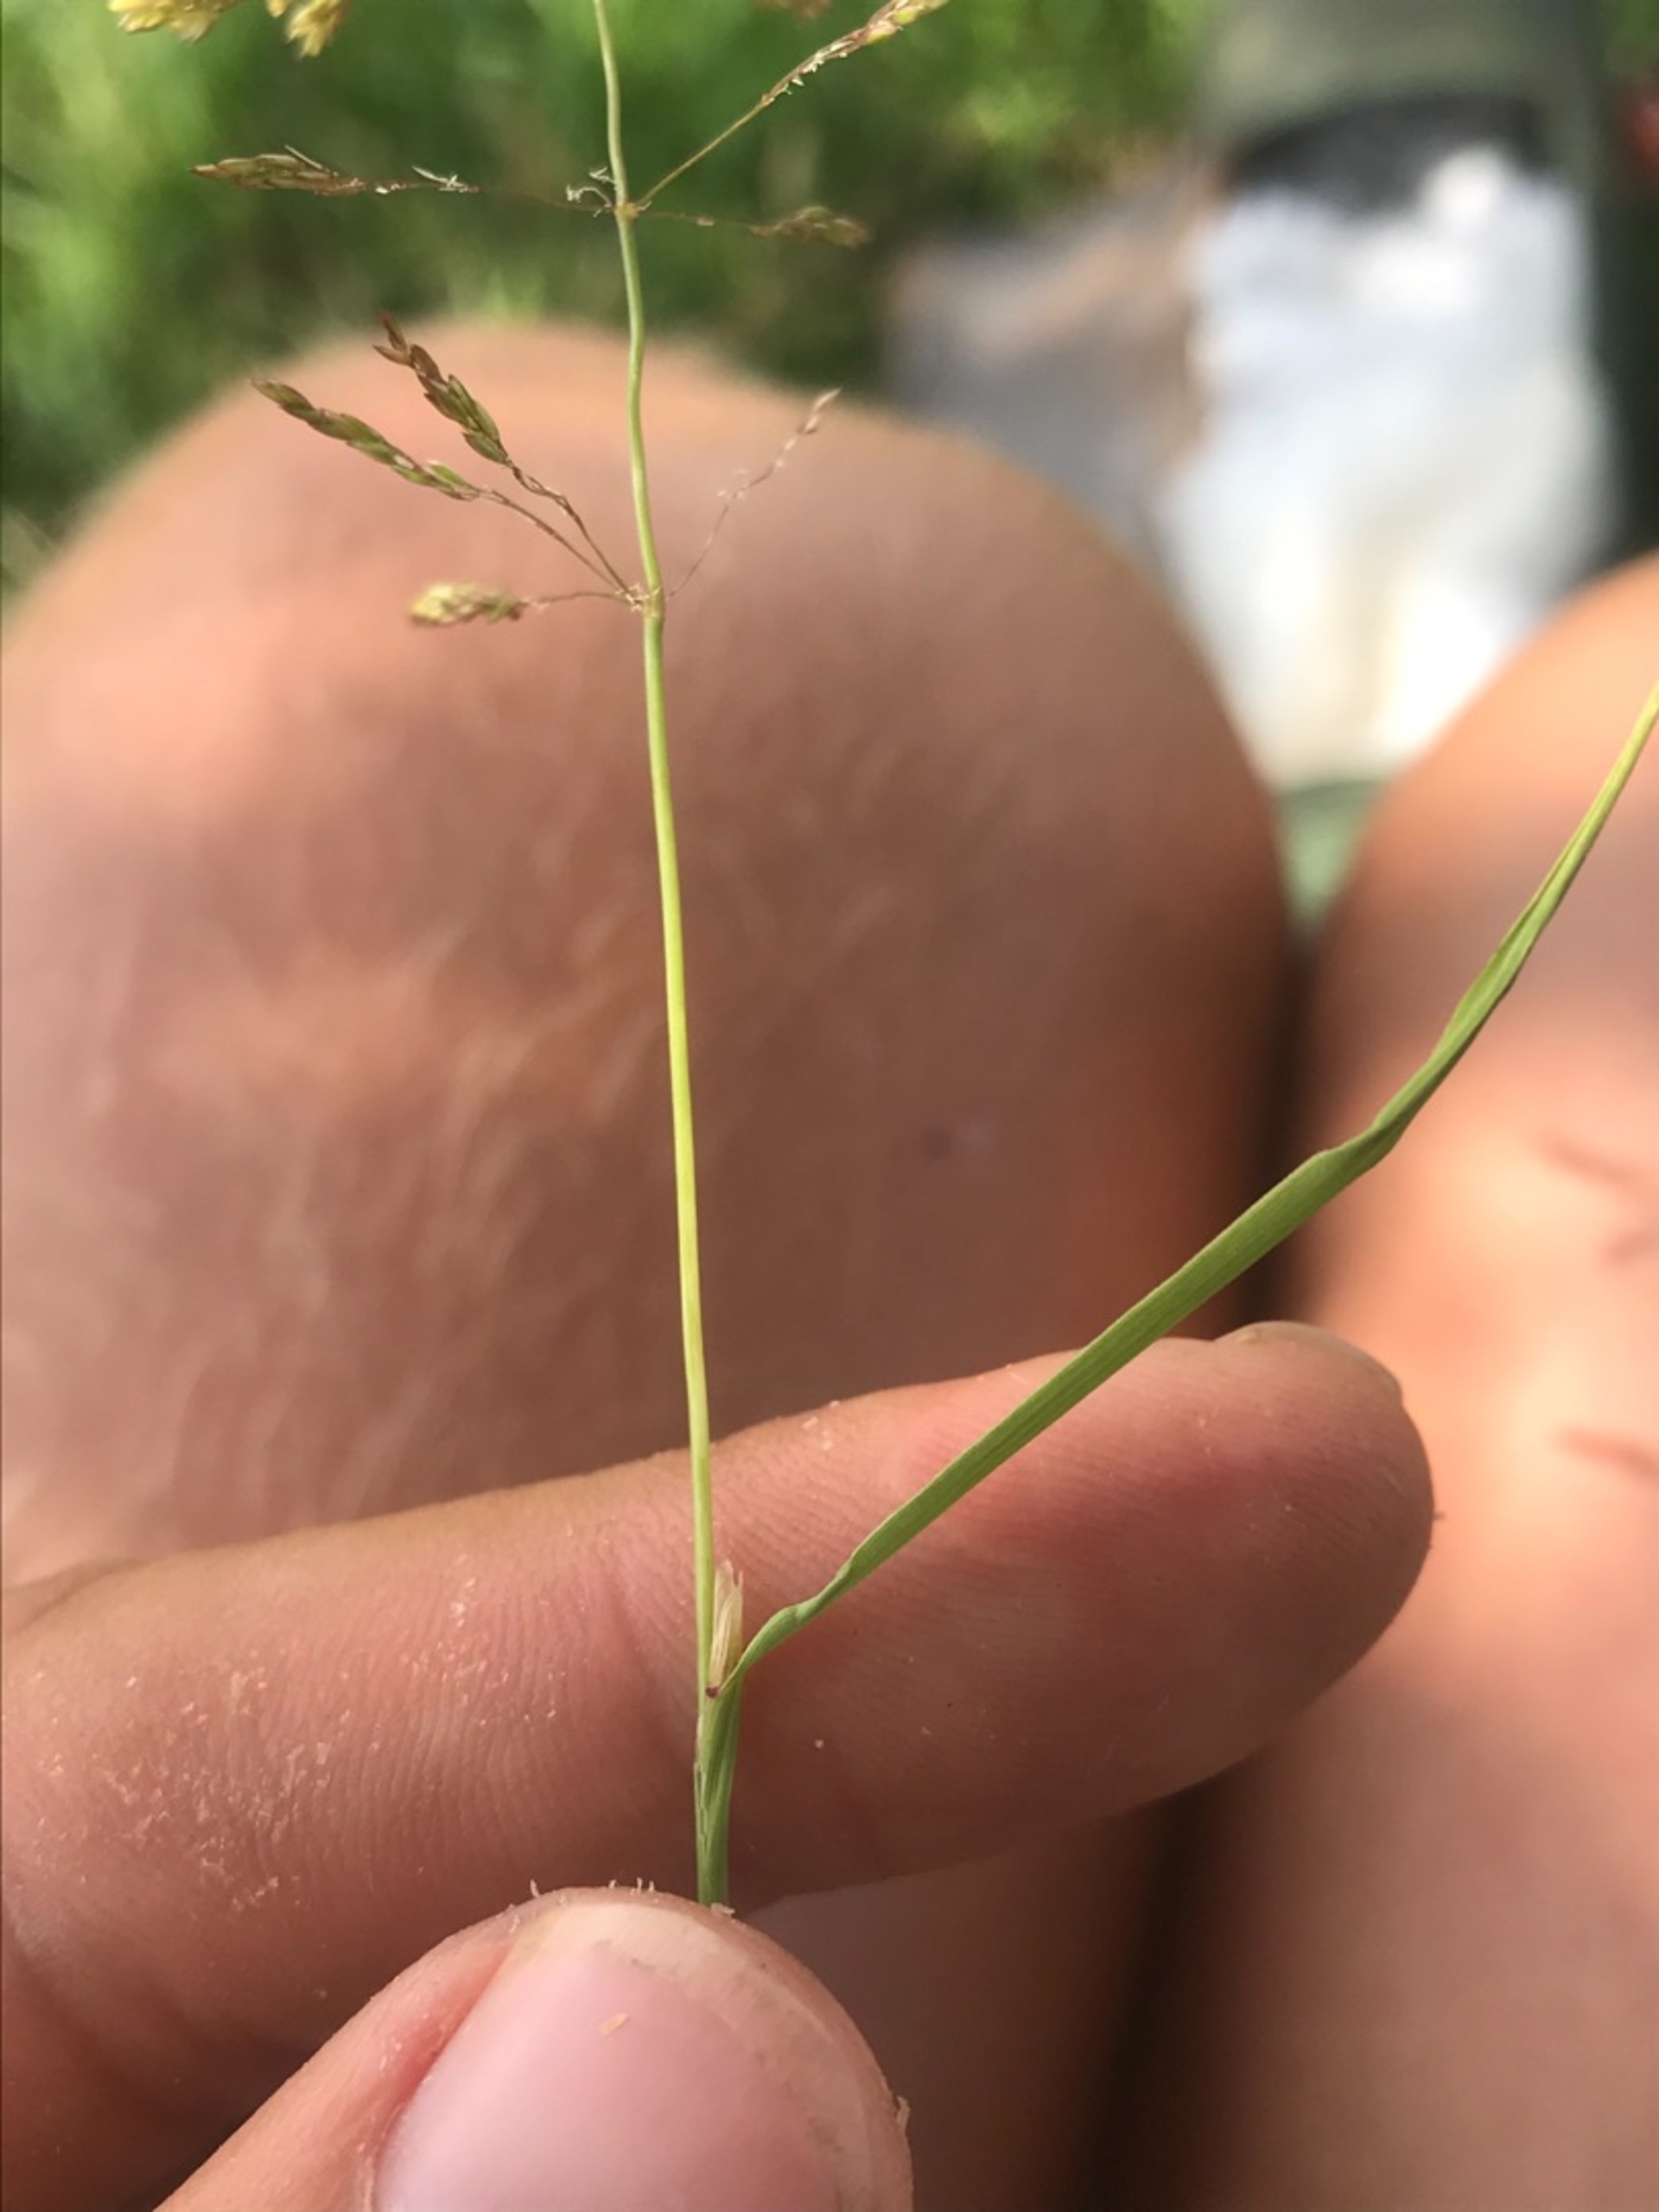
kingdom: Plantae
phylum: Tracheophyta
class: Liliopsida
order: Poales
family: Poaceae
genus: Agrostis
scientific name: Agrostis stolonifera
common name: Kryb-hvene
